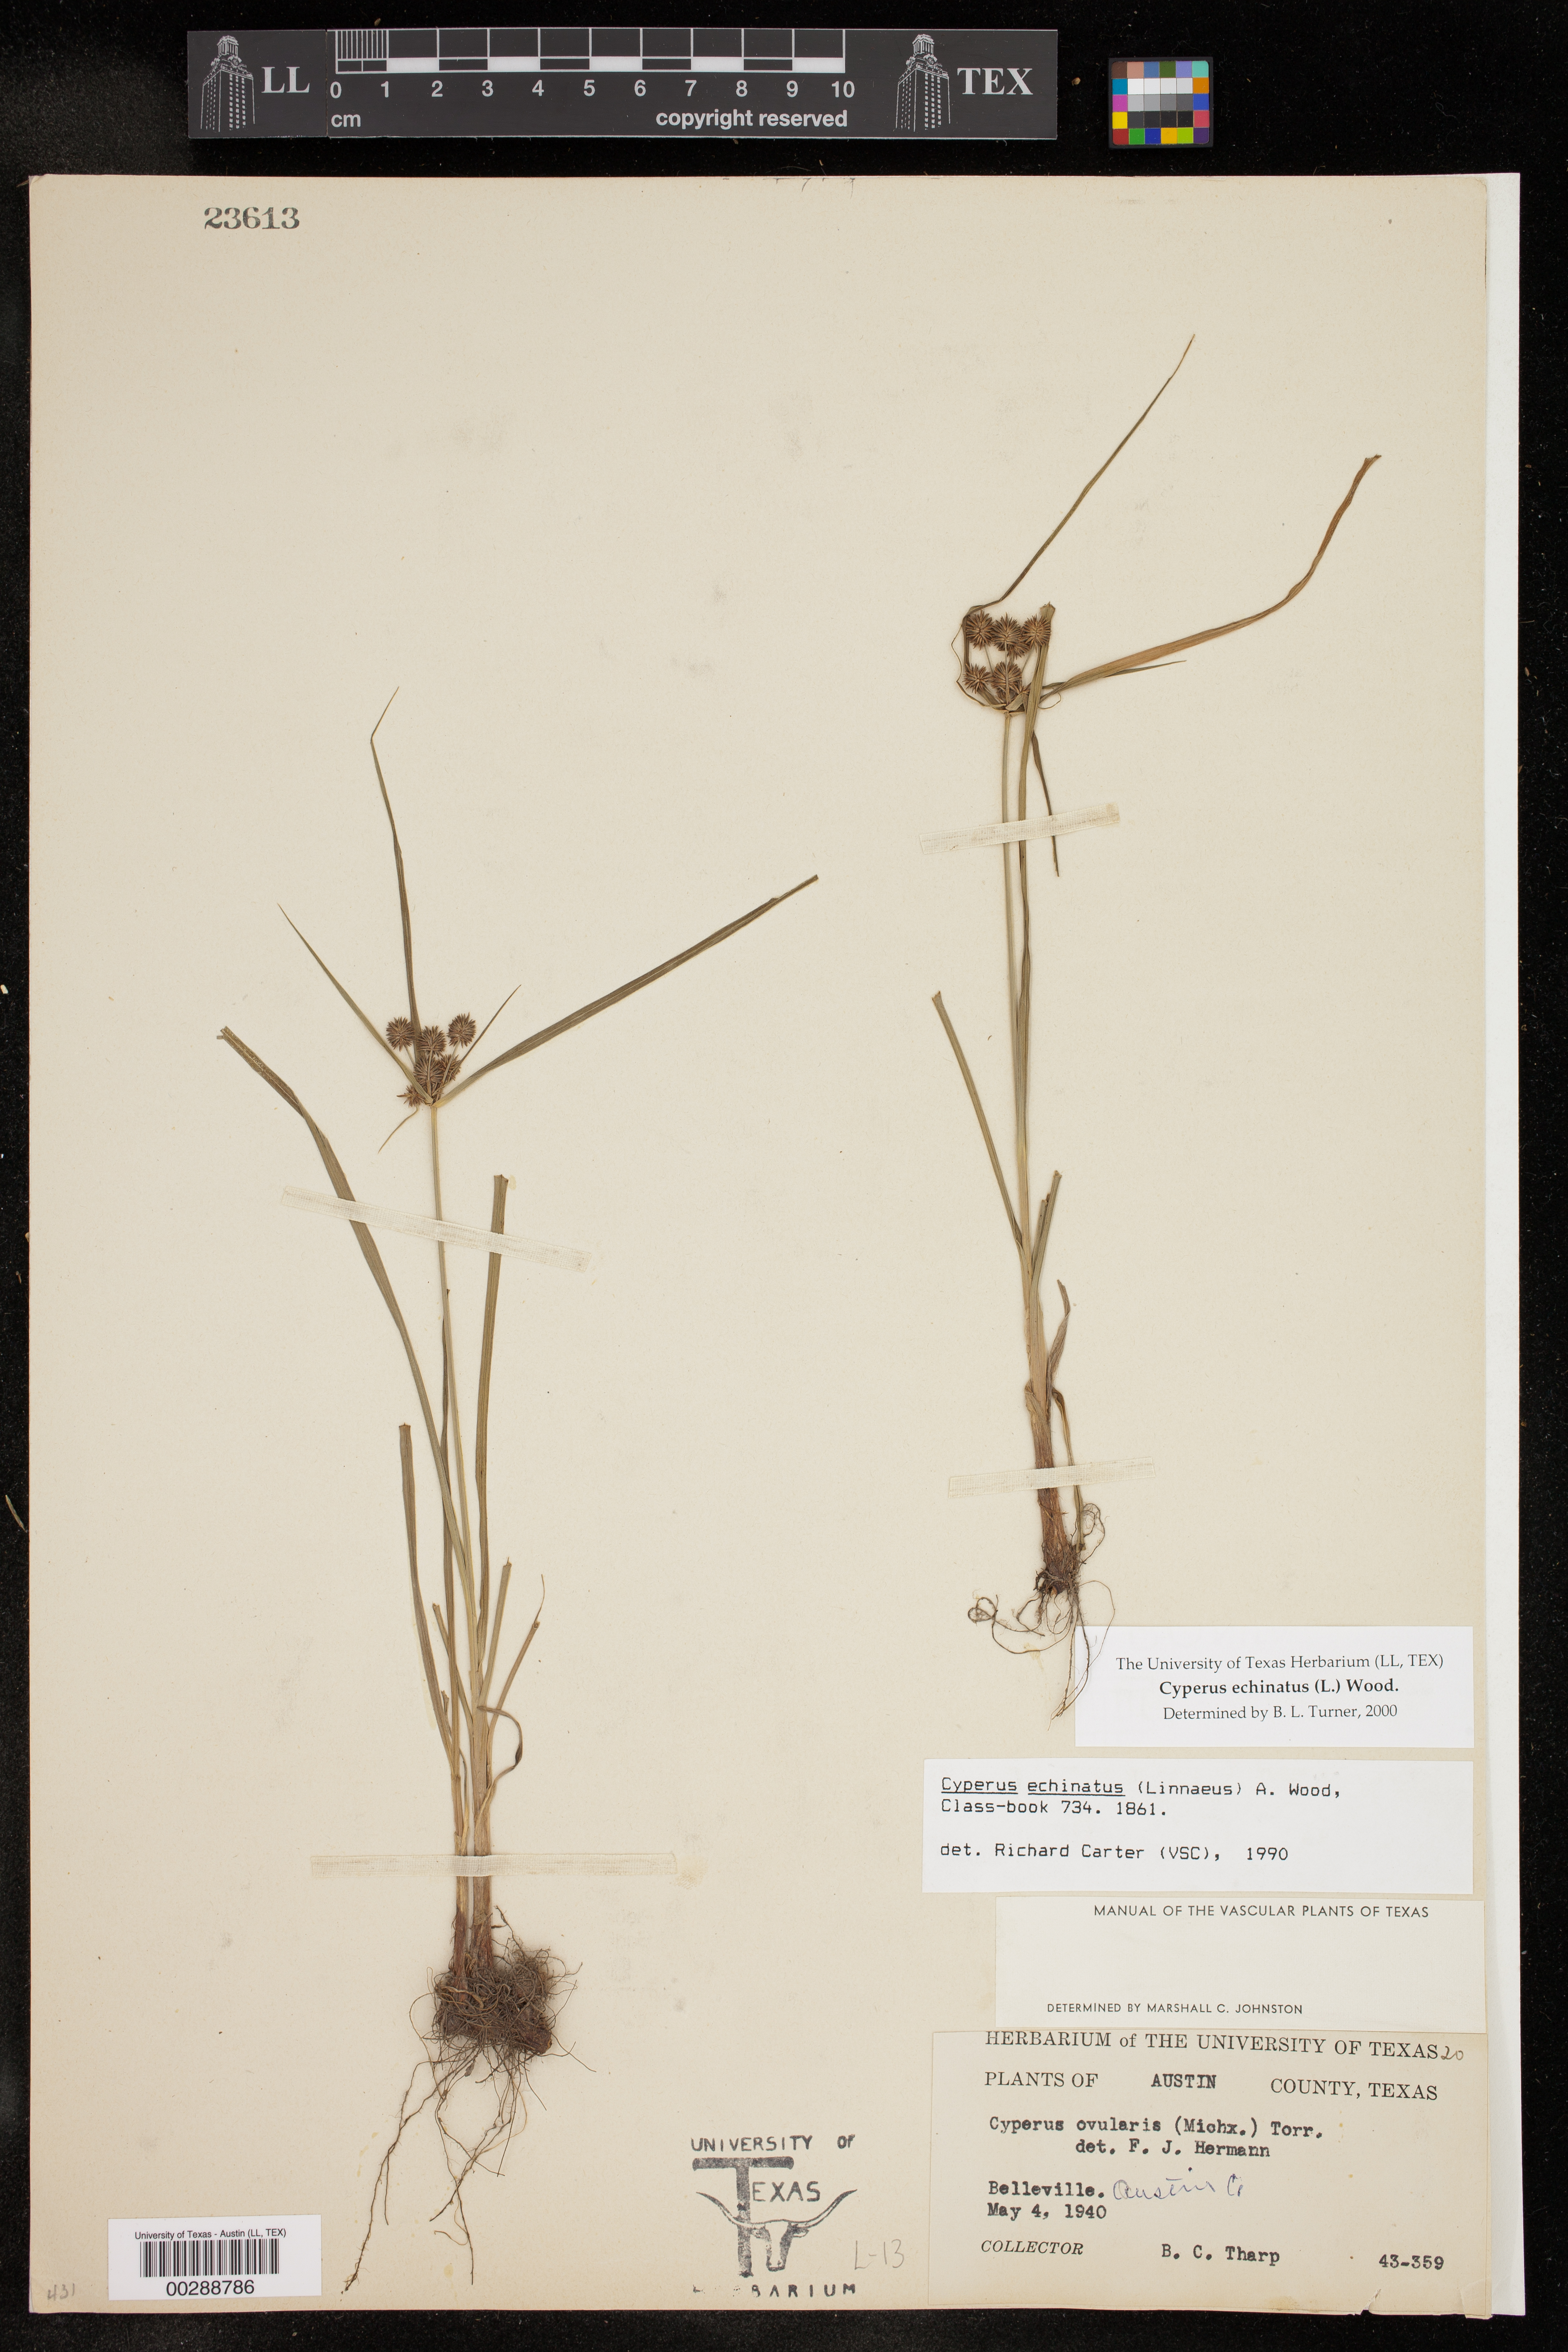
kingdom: Plantae
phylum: Tracheophyta
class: Liliopsida
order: Poales
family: Cyperaceae
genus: Cyperus
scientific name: Cyperus echinatus
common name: Teasel sedge
